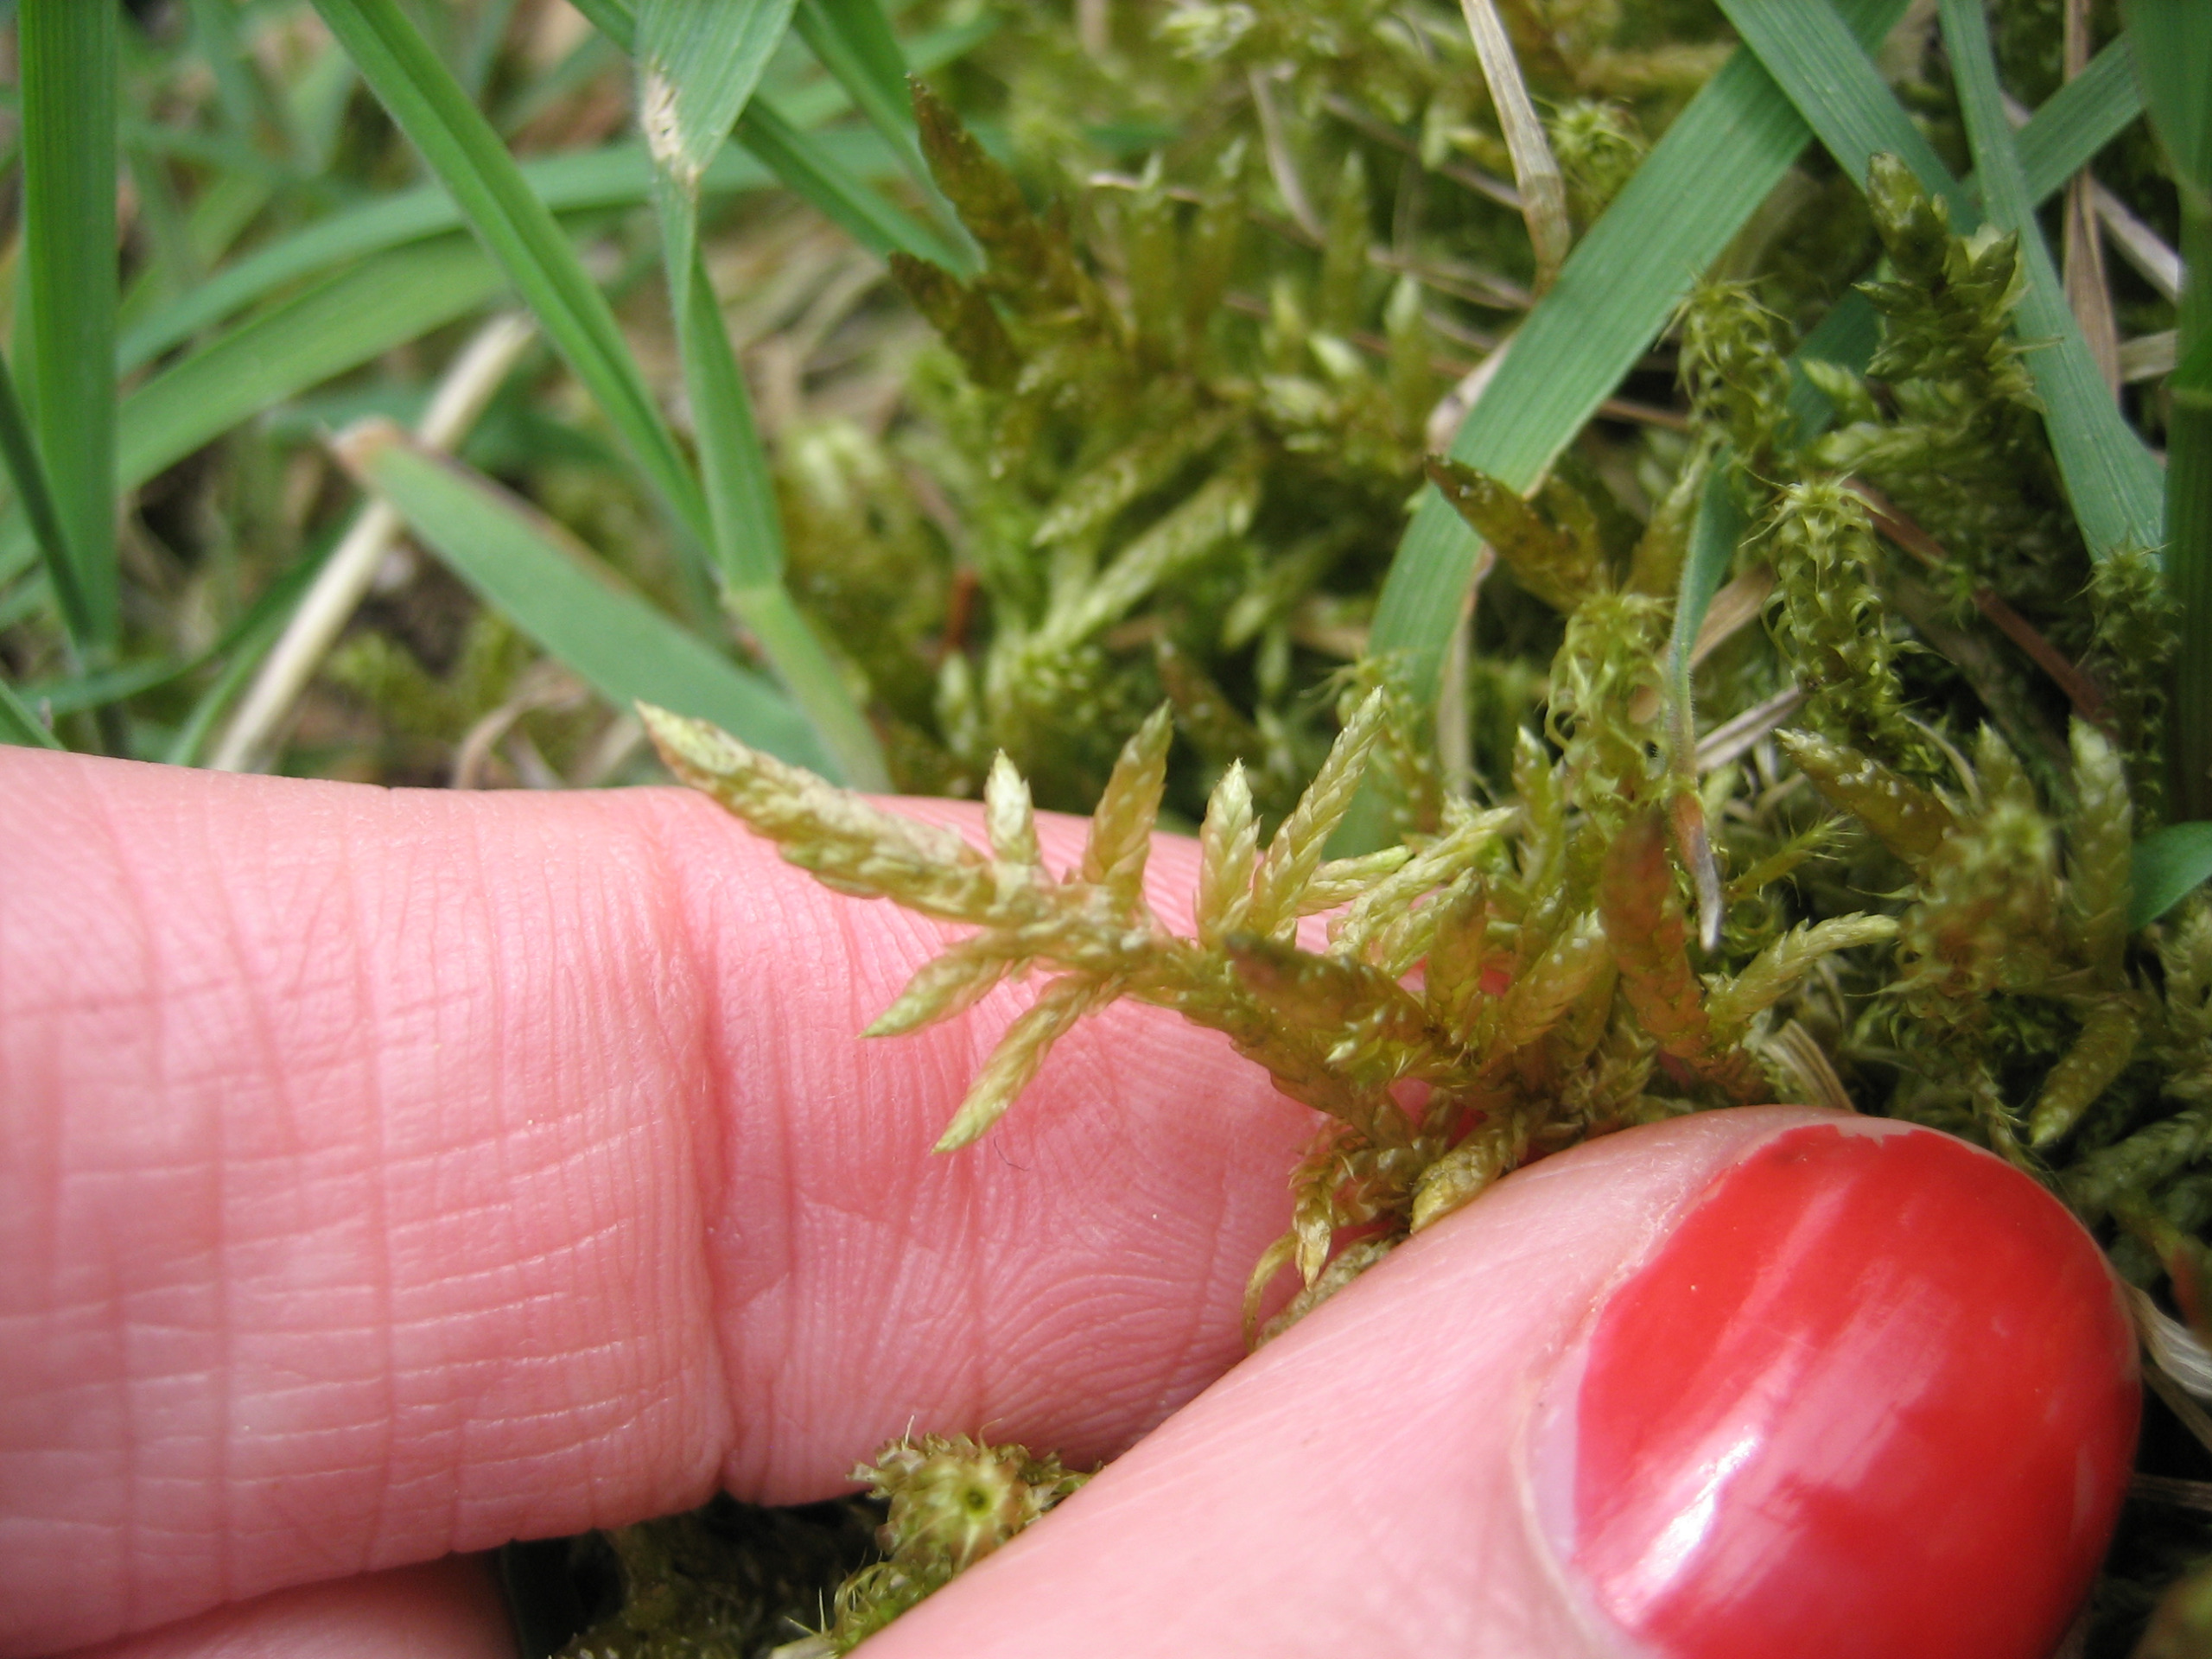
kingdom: Plantae
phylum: Bryophyta
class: Bryopsida
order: Hypnales
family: Brachytheciaceae
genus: Pseudoscleropodium
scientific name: Pseudoscleropodium purum
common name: Hulbladet fedtmos
